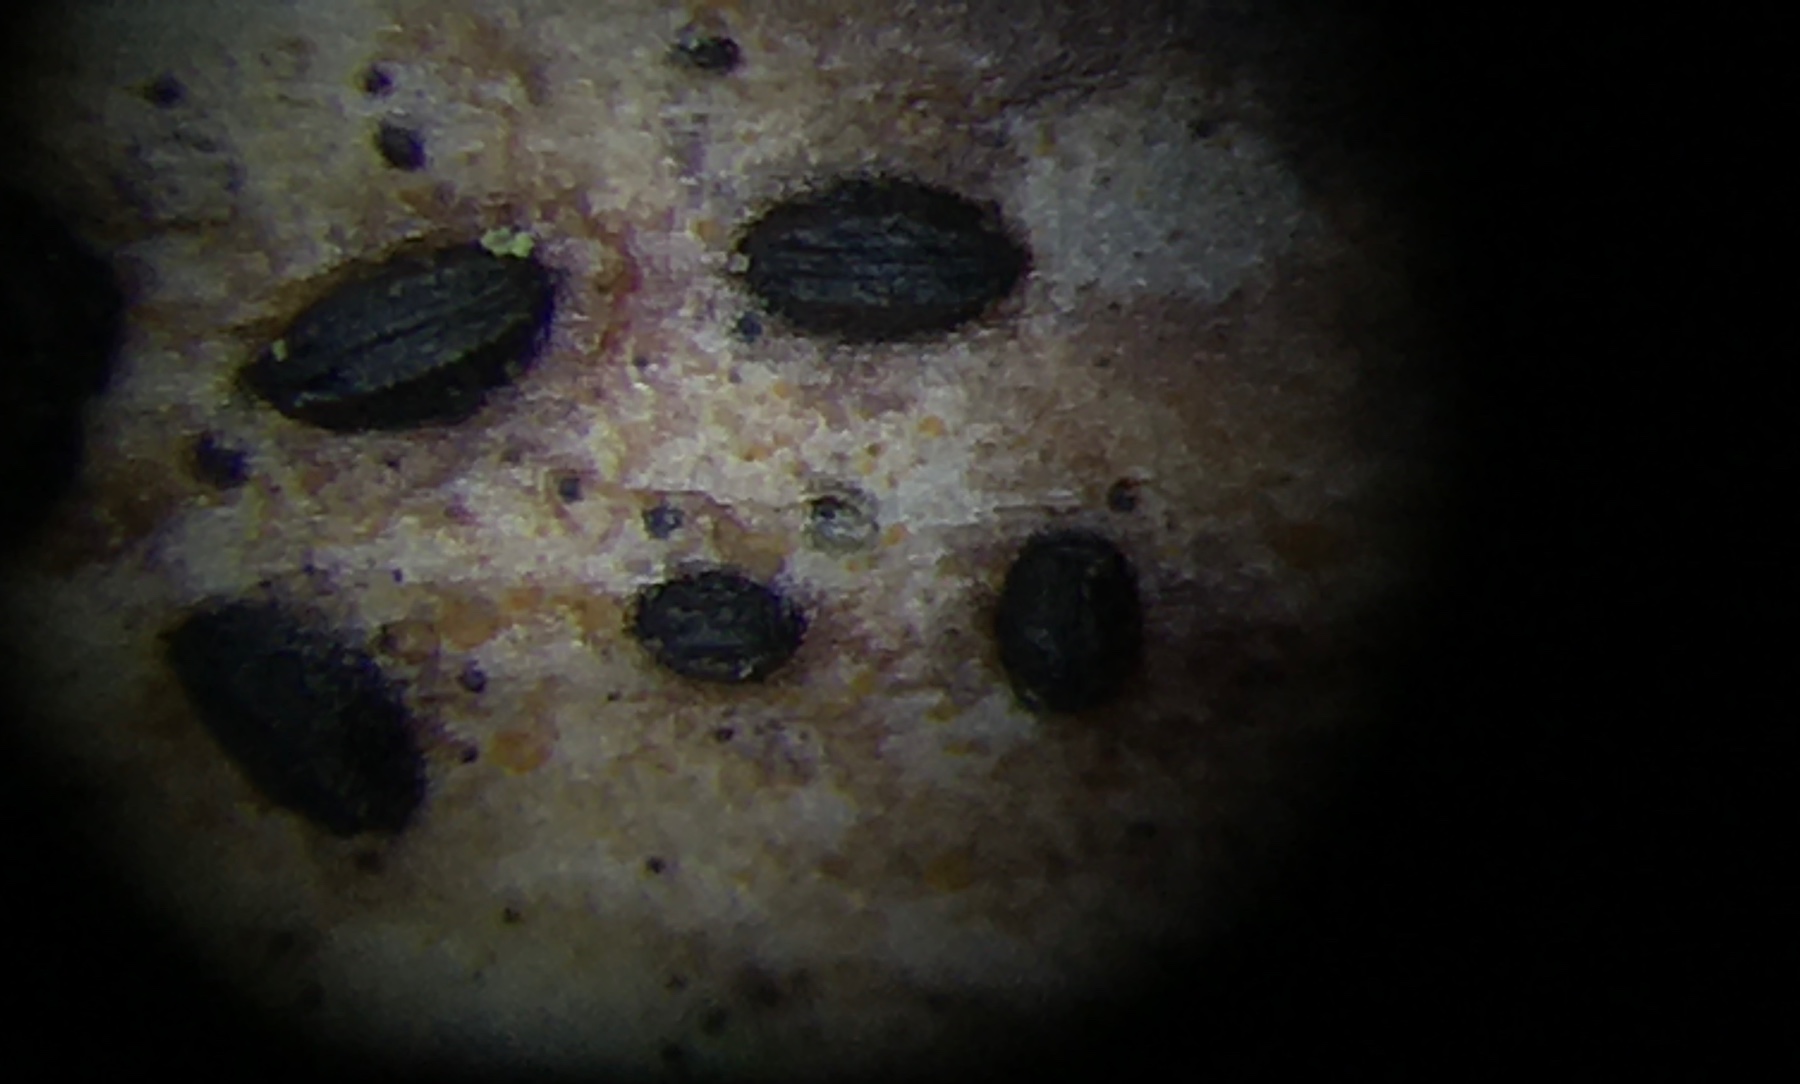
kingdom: Fungi
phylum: Ascomycota
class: Leotiomycetes
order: Rhytismatales
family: Rhytismataceae
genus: Lophodermium
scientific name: Lophodermium maculare
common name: bølle-fureplet
